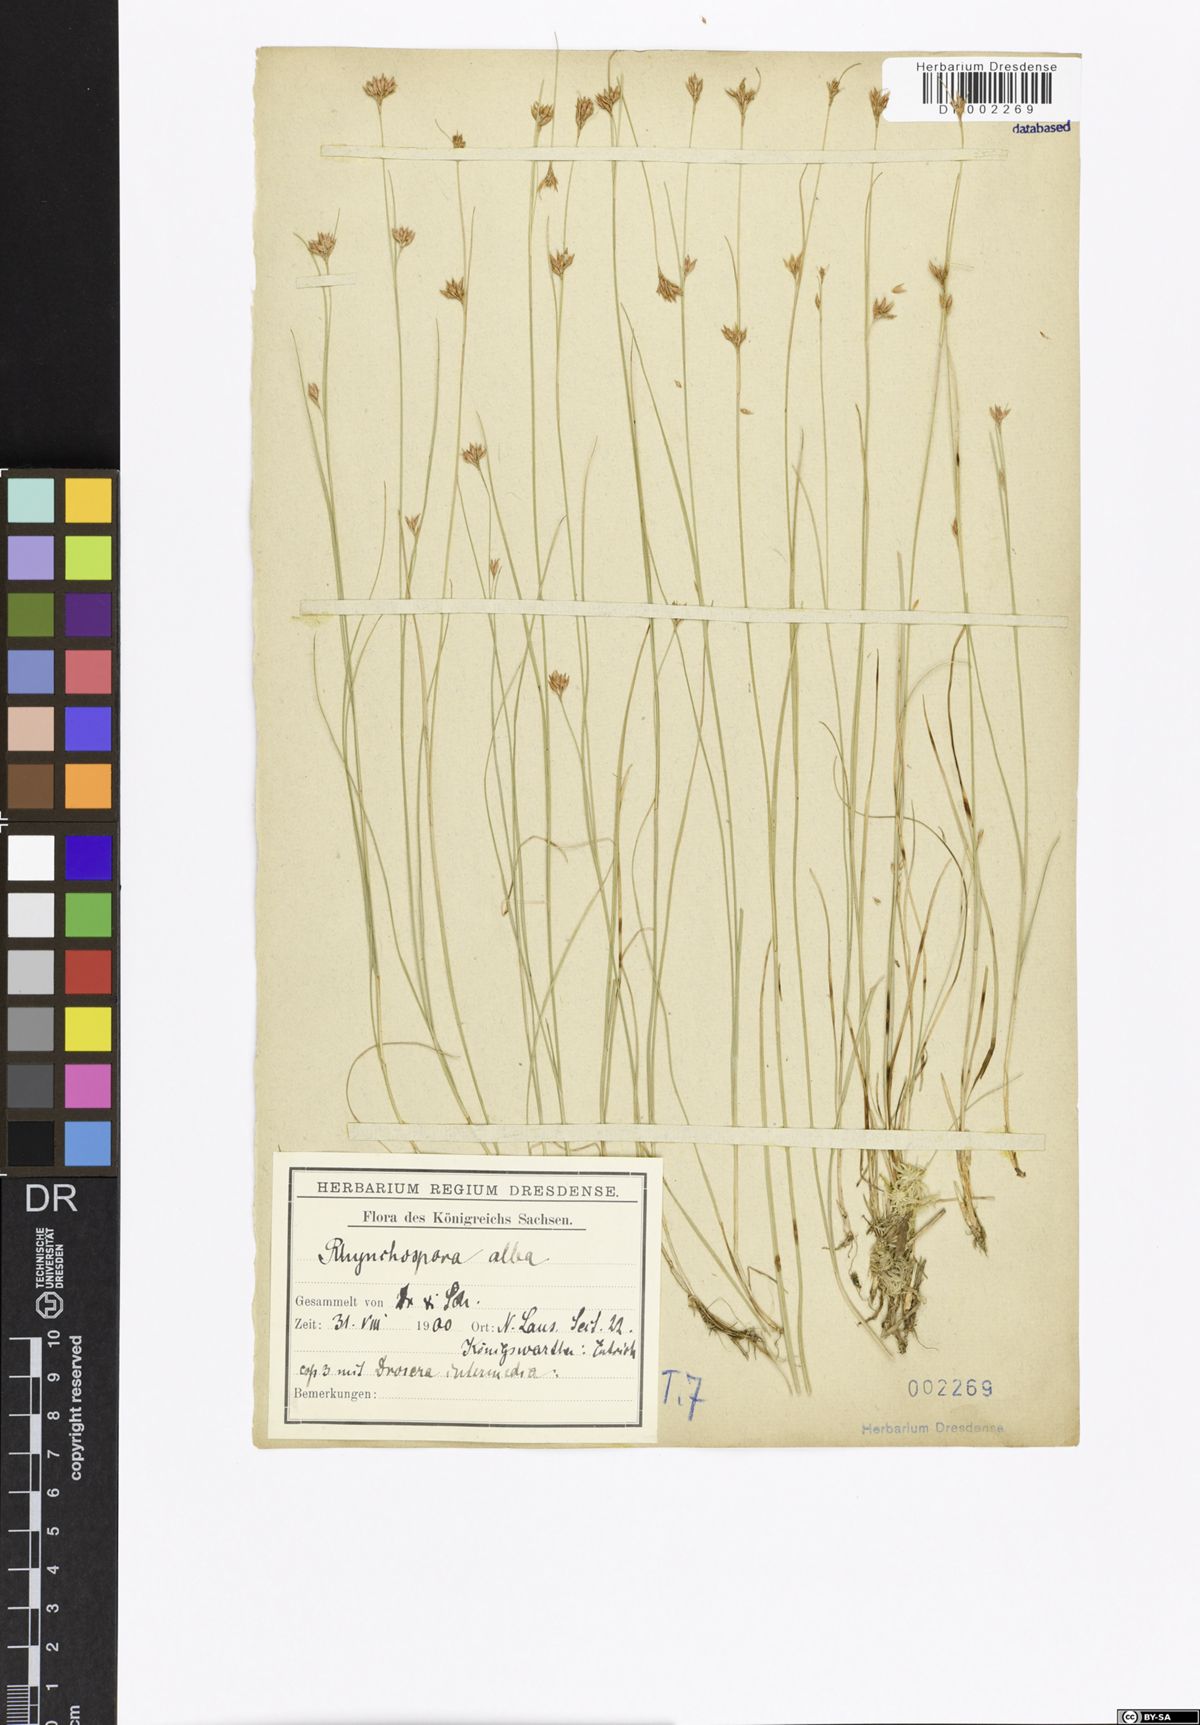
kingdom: Plantae
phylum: Tracheophyta
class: Liliopsida
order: Poales
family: Cyperaceae
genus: Rhynchospora
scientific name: Rhynchospora alba
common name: White beak-sedge
